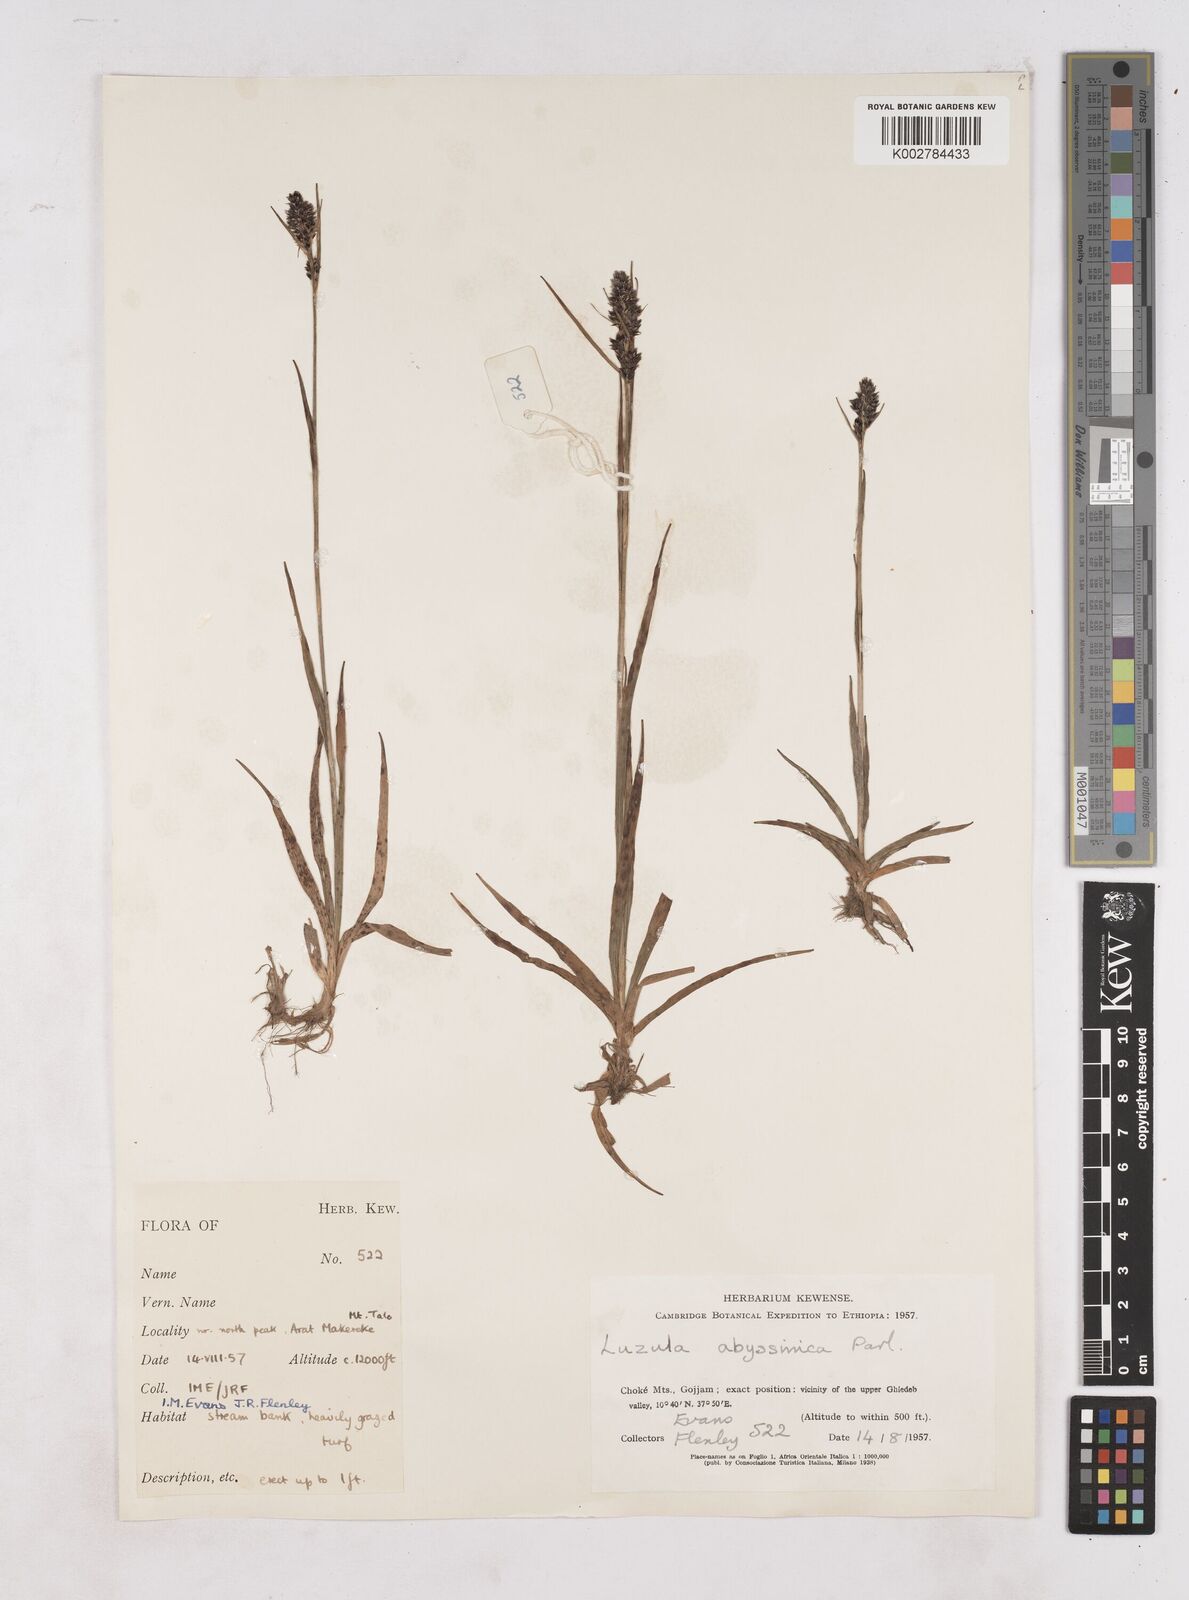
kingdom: Plantae
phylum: Tracheophyta
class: Liliopsida
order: Poales
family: Juncaceae
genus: Luzula
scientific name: Luzula abyssinica
